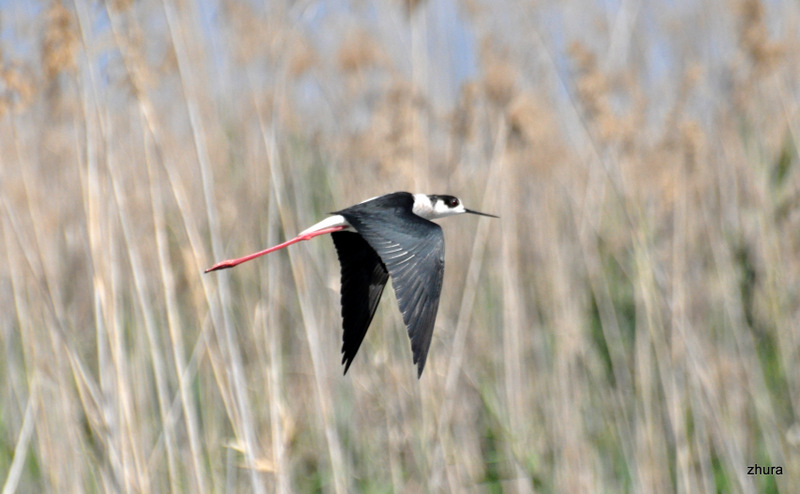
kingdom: Animalia
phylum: Chordata
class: Aves
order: Charadriiformes
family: Recurvirostridae
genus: Himantopus
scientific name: Himantopus himantopus
